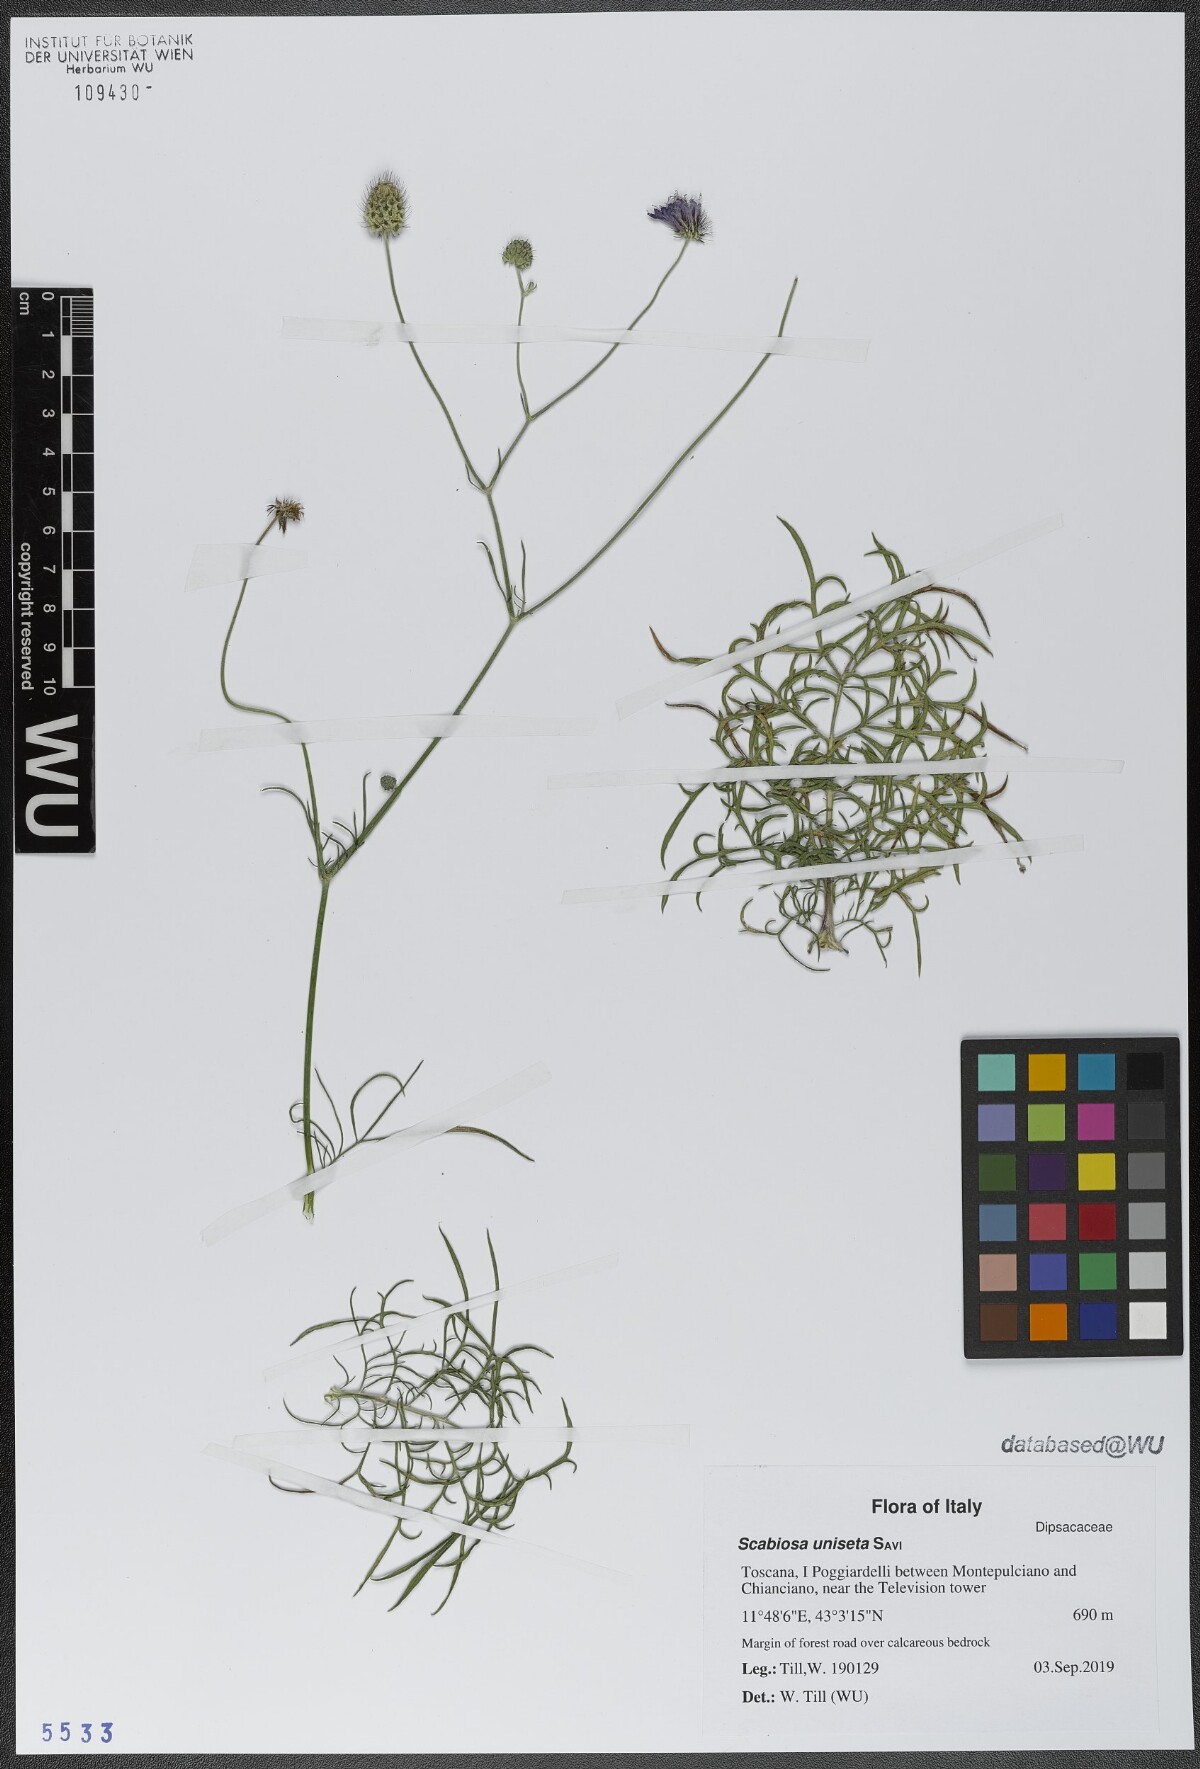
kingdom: Plantae
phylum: Tracheophyta
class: Magnoliopsida
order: Dipsacales
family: Caprifoliaceae
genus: Scabiosa
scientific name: Scabiosa columbaria
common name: Small scabious
